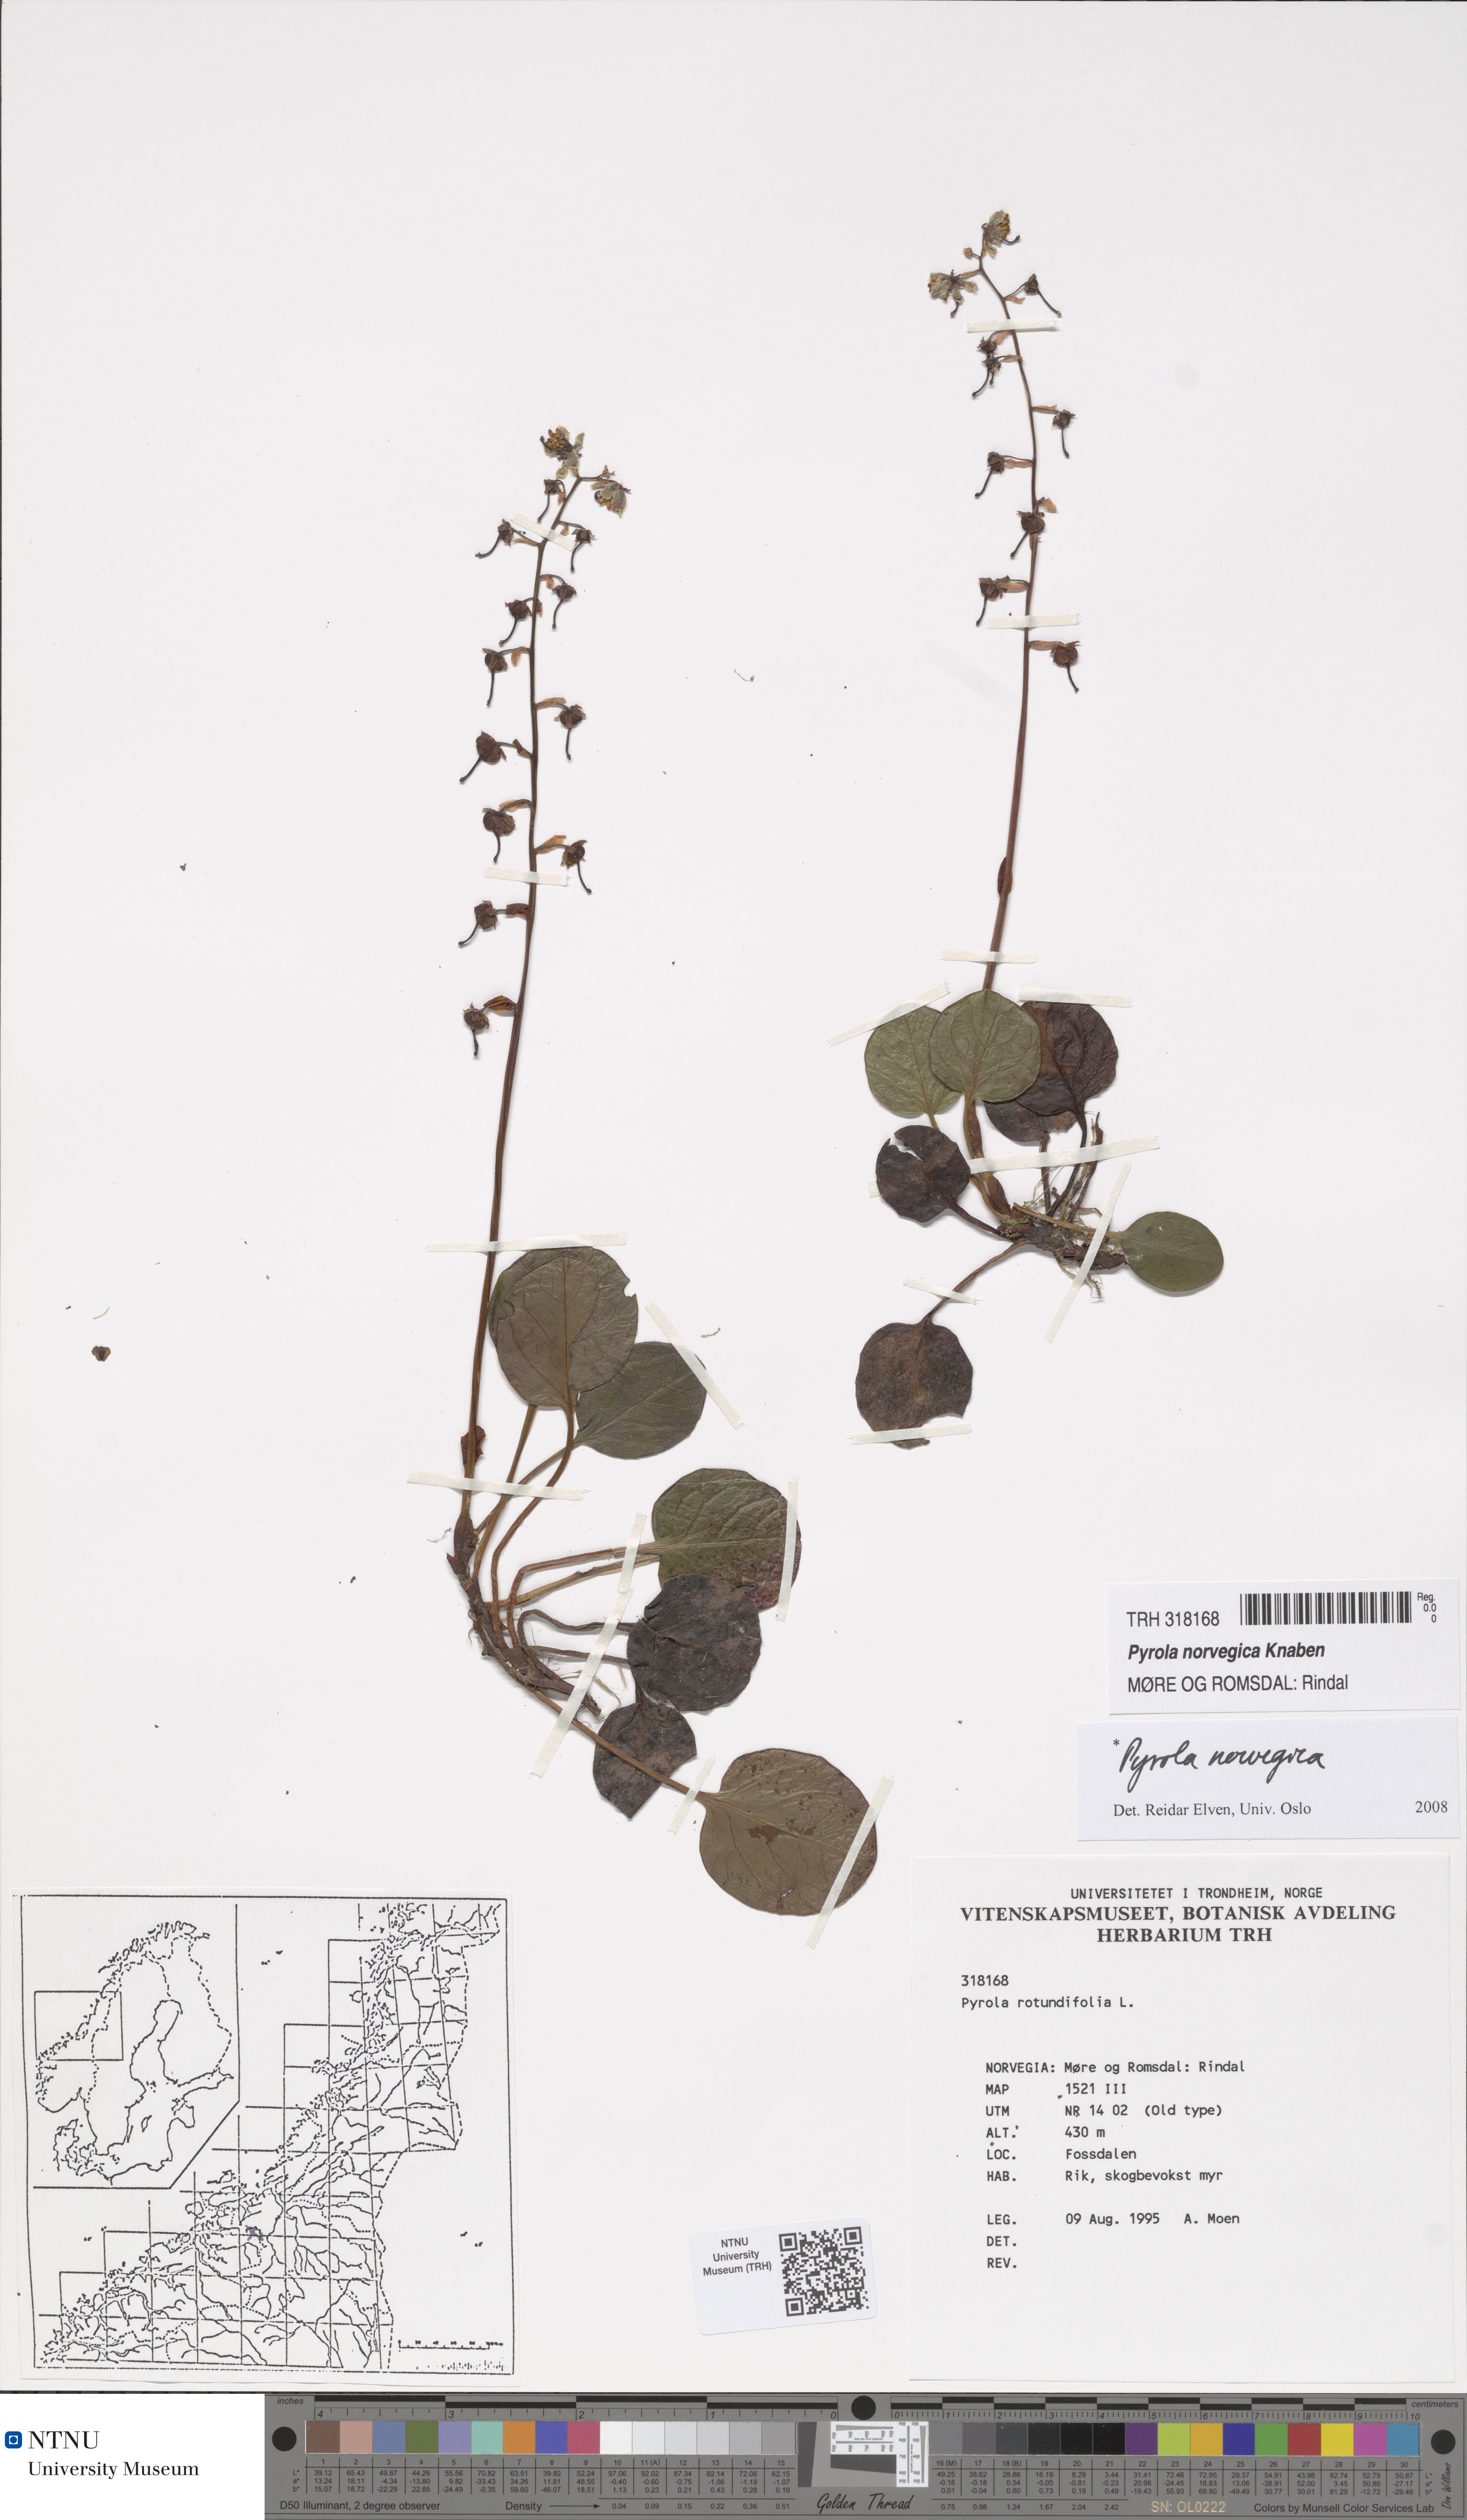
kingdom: Plantae
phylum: Tracheophyta
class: Magnoliopsida
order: Ericales
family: Ericaceae
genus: Pyrola
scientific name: Pyrola rotundifolia
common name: Round-leaved wintergreen
